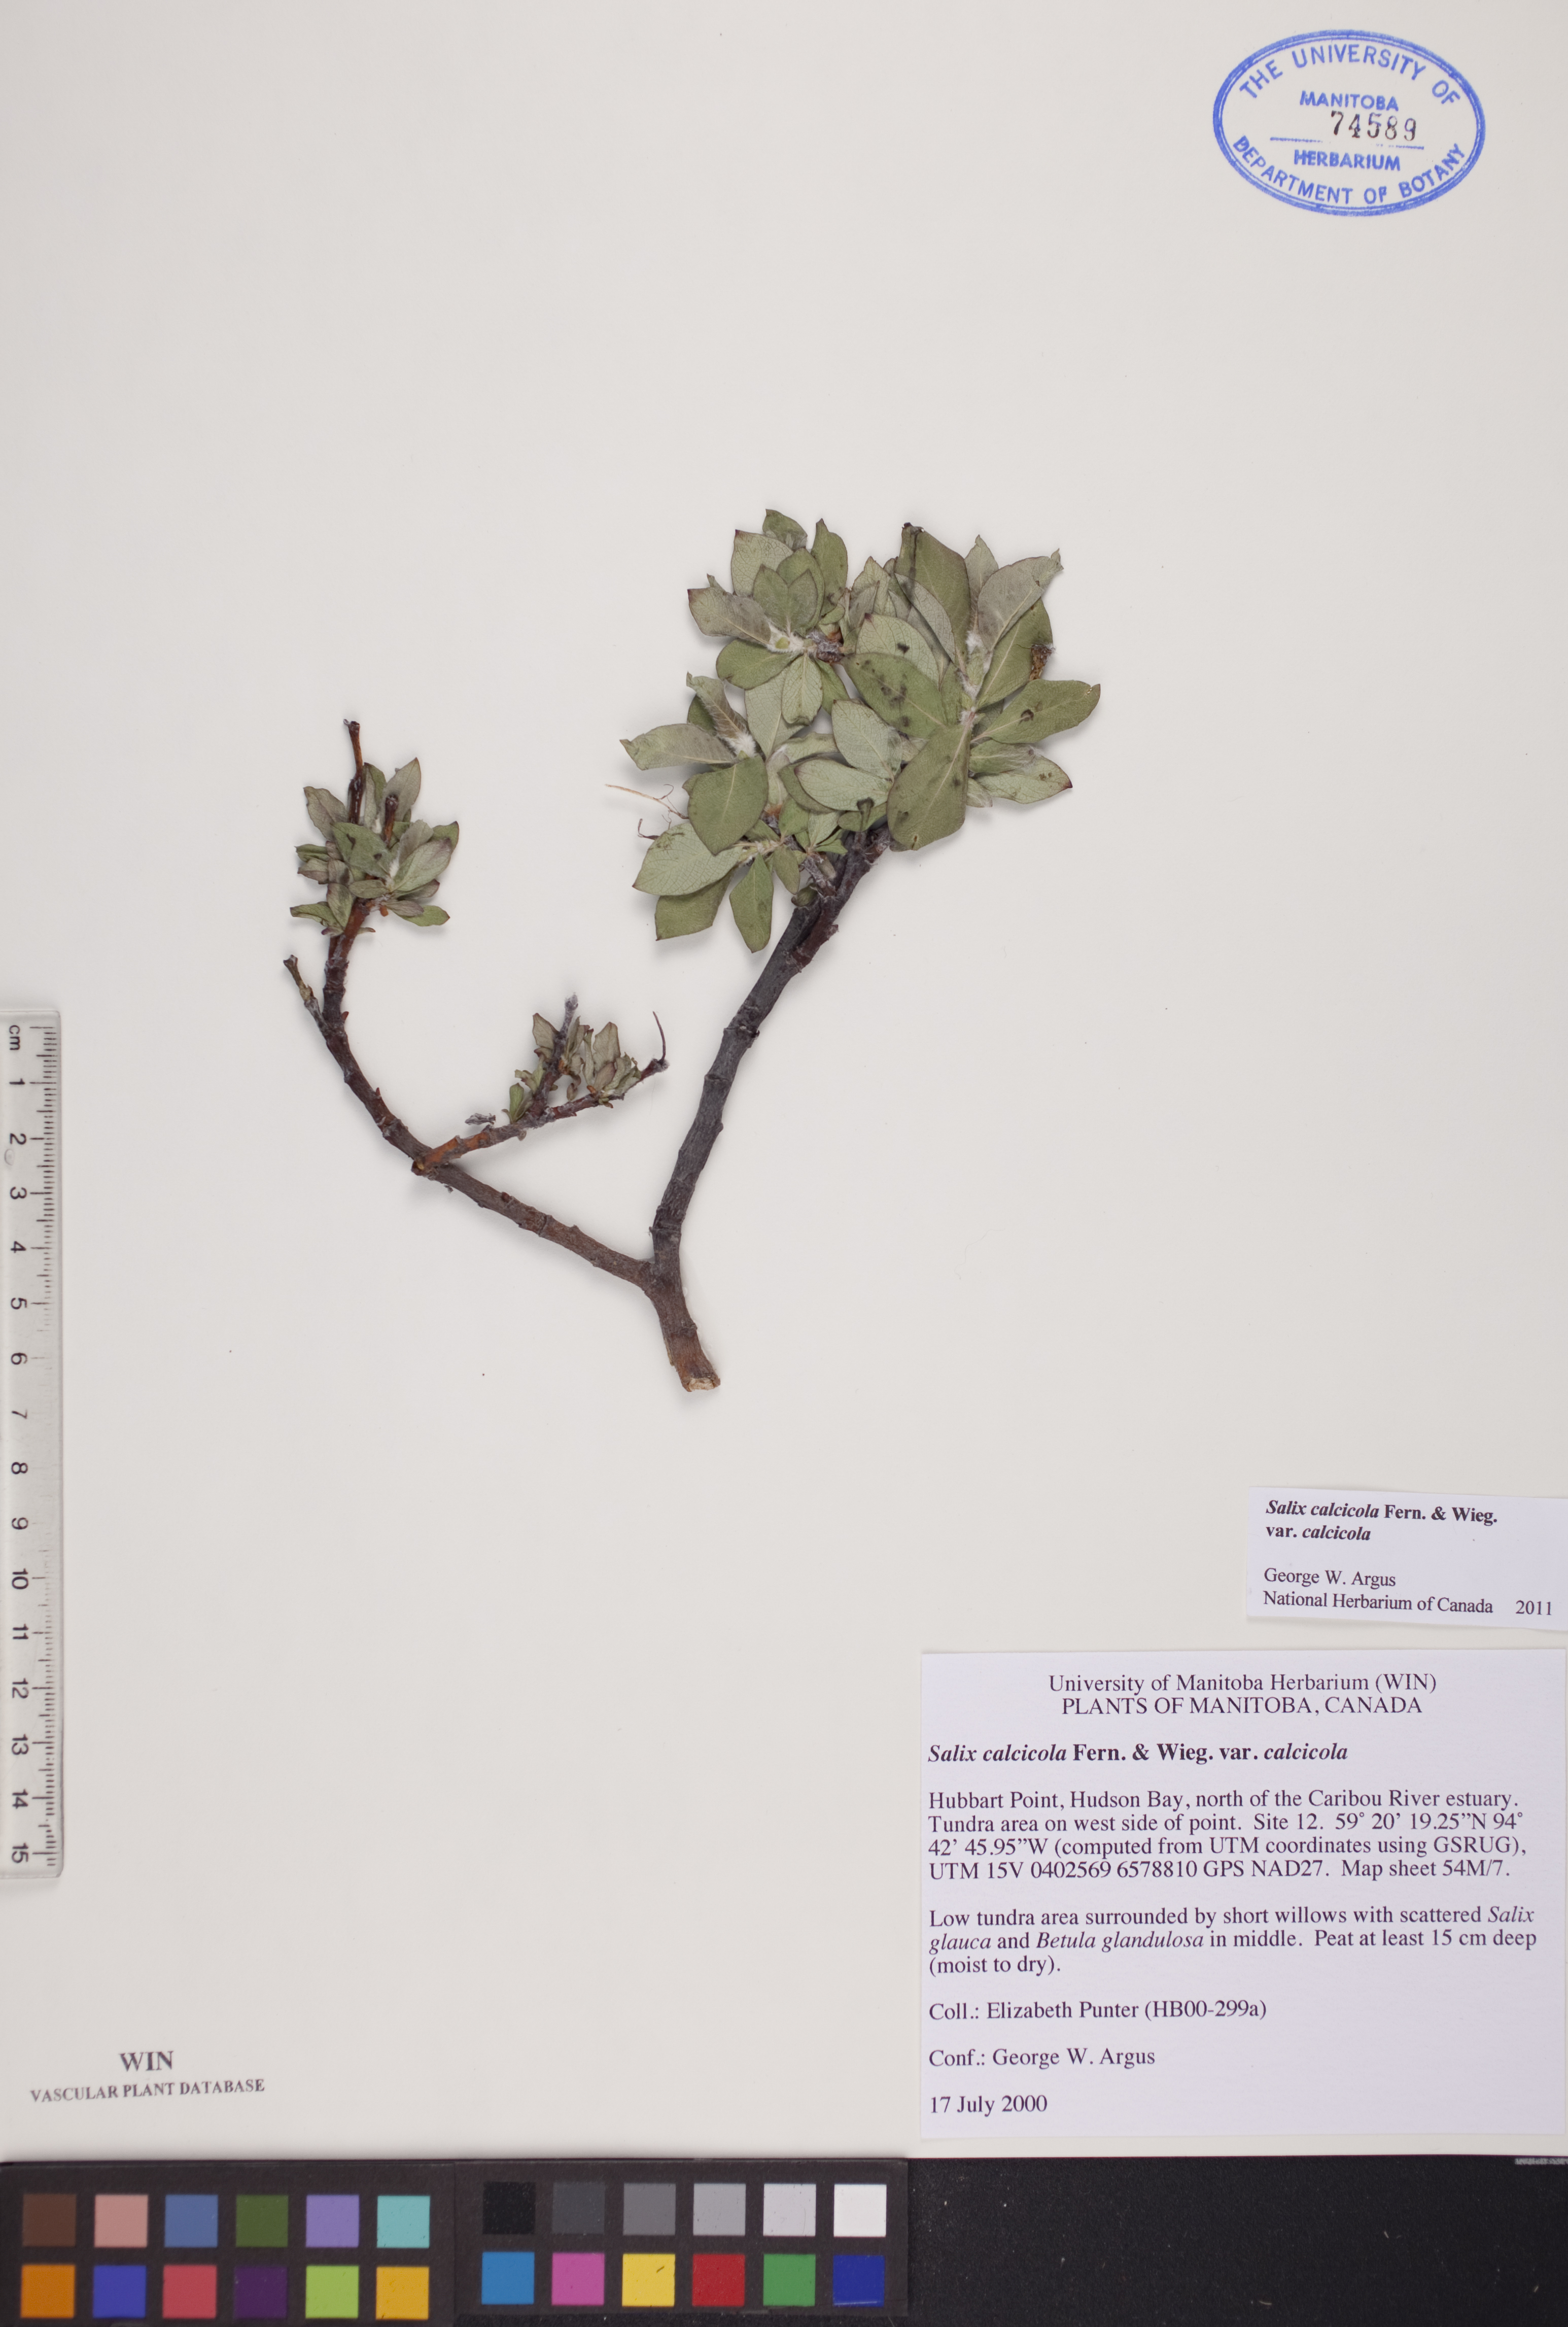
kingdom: Plantae
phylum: Tracheophyta
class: Magnoliopsida
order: Malpighiales
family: Salicaceae
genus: Salix
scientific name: Salix calcicola
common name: Calcareous willow
